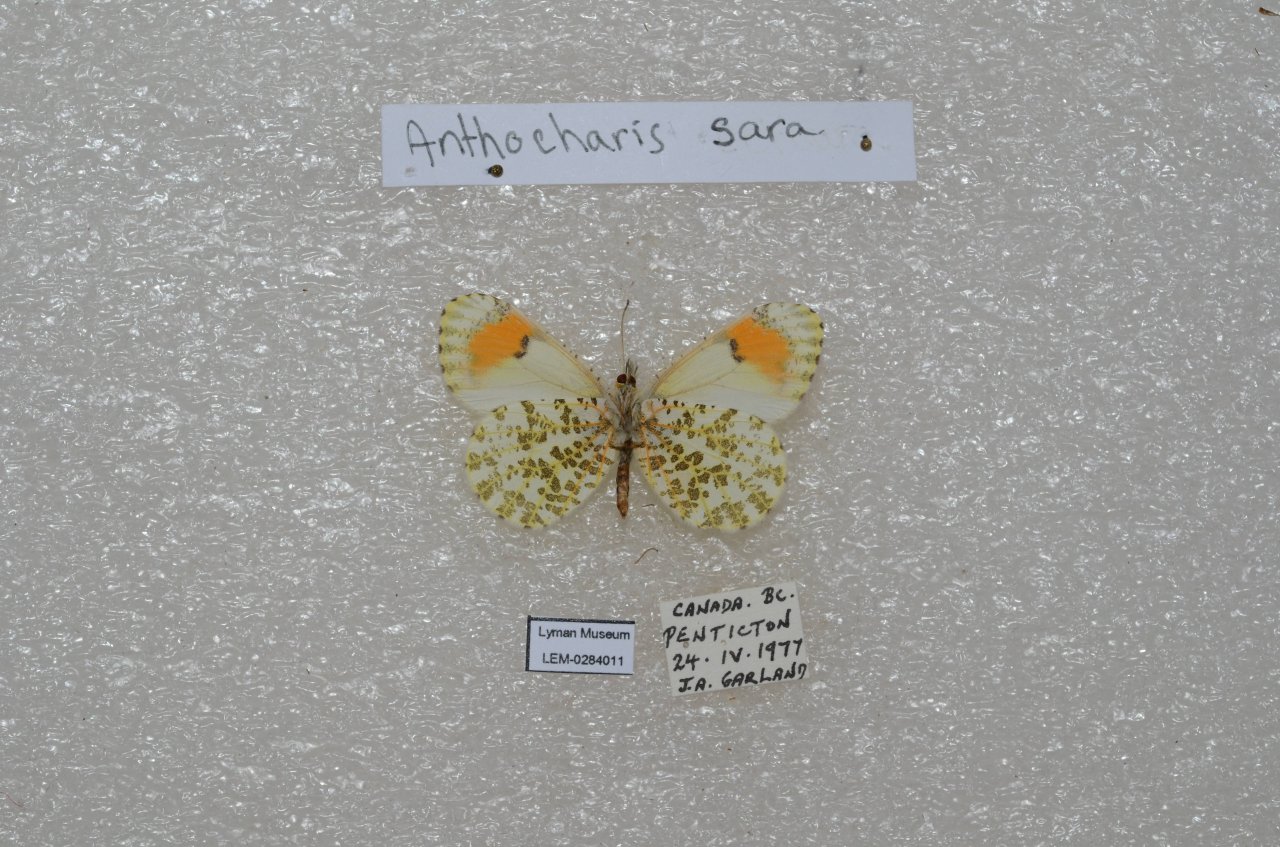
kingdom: Animalia
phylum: Arthropoda
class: Insecta
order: Lepidoptera
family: Pieridae
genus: Anthocharis
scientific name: Anthocharis sara
